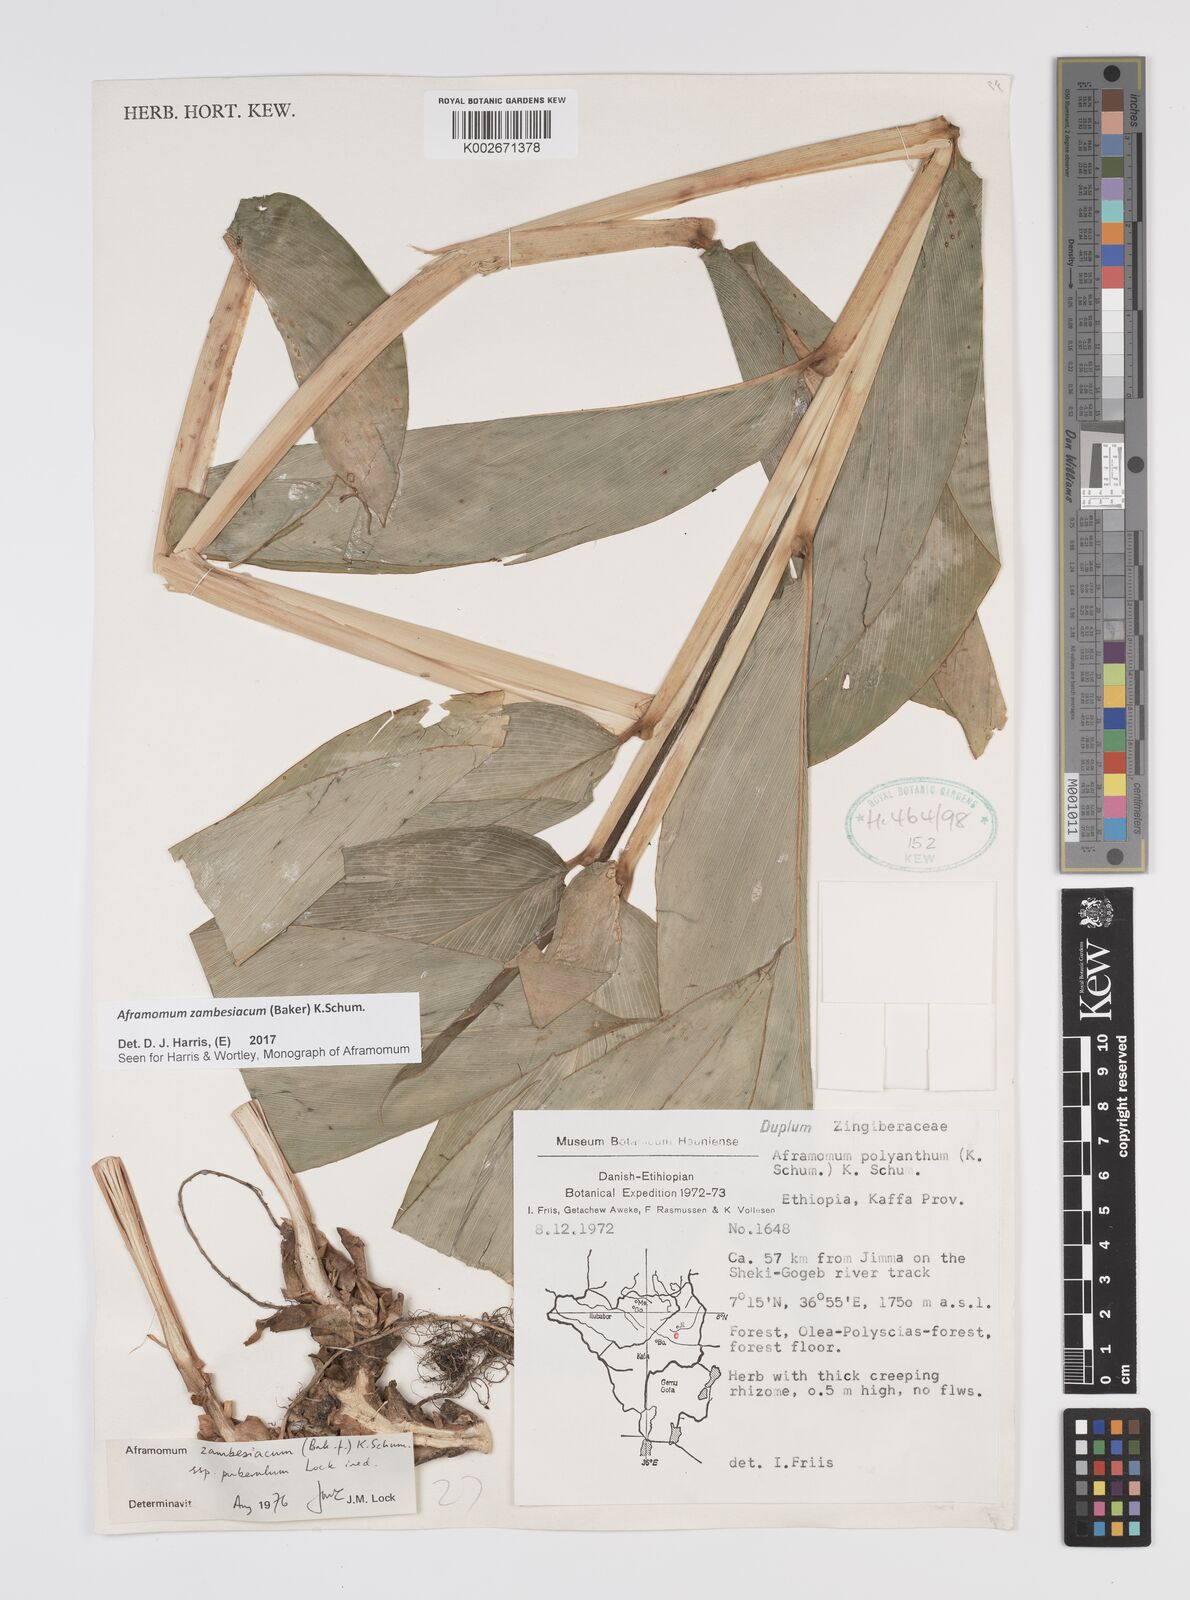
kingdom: Plantae
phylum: Tracheophyta
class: Liliopsida
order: Zingiberales
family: Zingiberaceae
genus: Aframomum
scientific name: Aframomum zambesiacum
